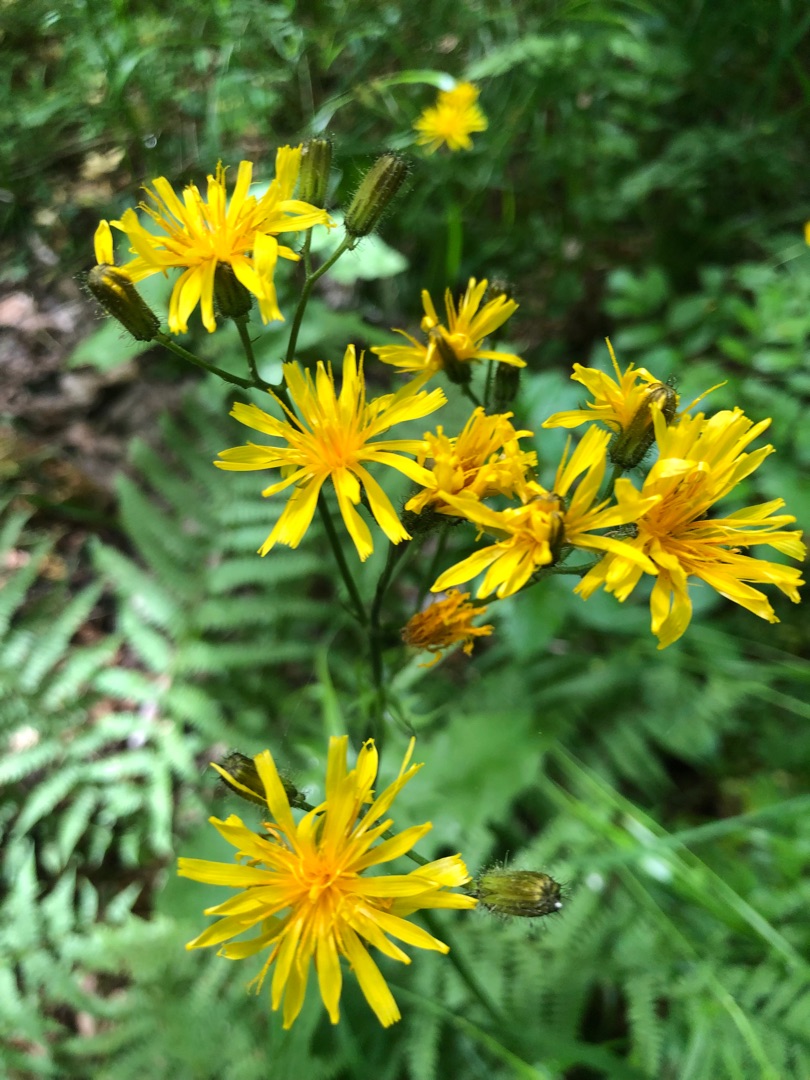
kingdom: Plantae
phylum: Tracheophyta
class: Magnoliopsida
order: Asterales
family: Asteraceae
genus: Crepis
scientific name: Crepis paludosa
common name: Kær-høgeskæg
